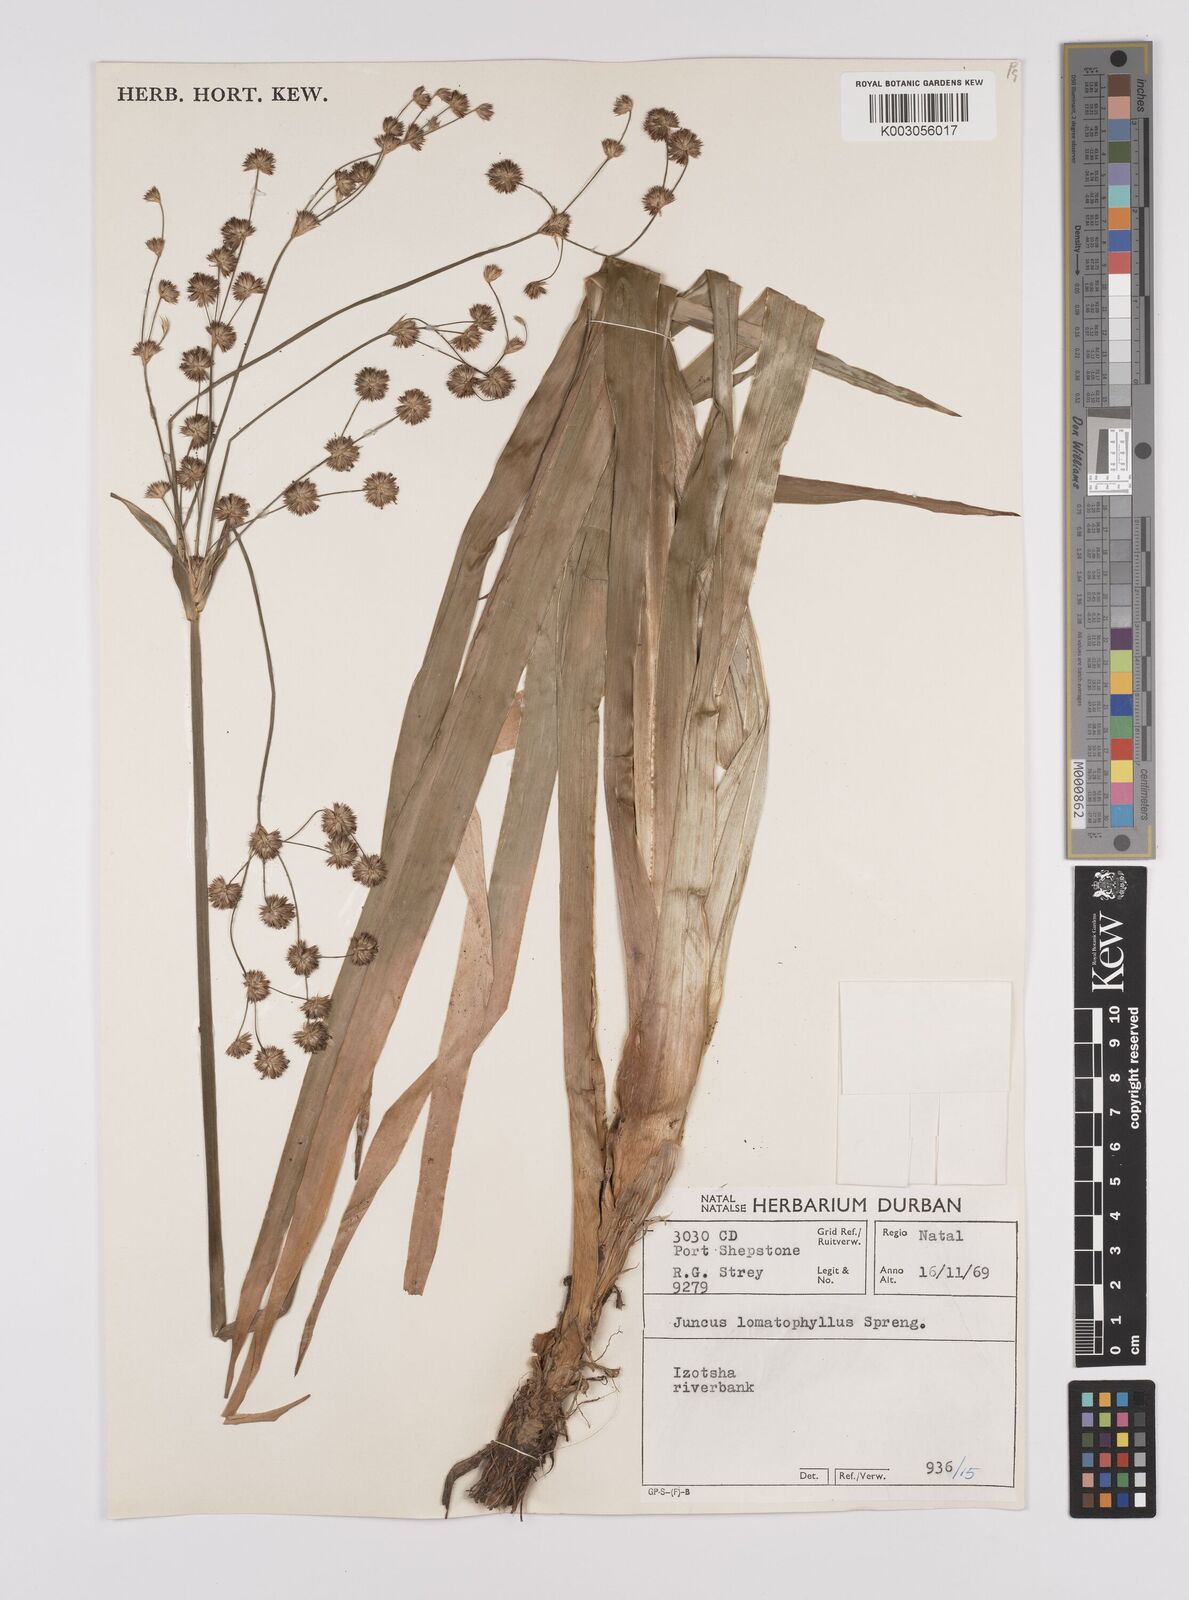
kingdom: Plantae
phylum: Tracheophyta
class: Liliopsida
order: Poales
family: Juncaceae
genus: Juncus
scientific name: Juncus lomatophyllus
